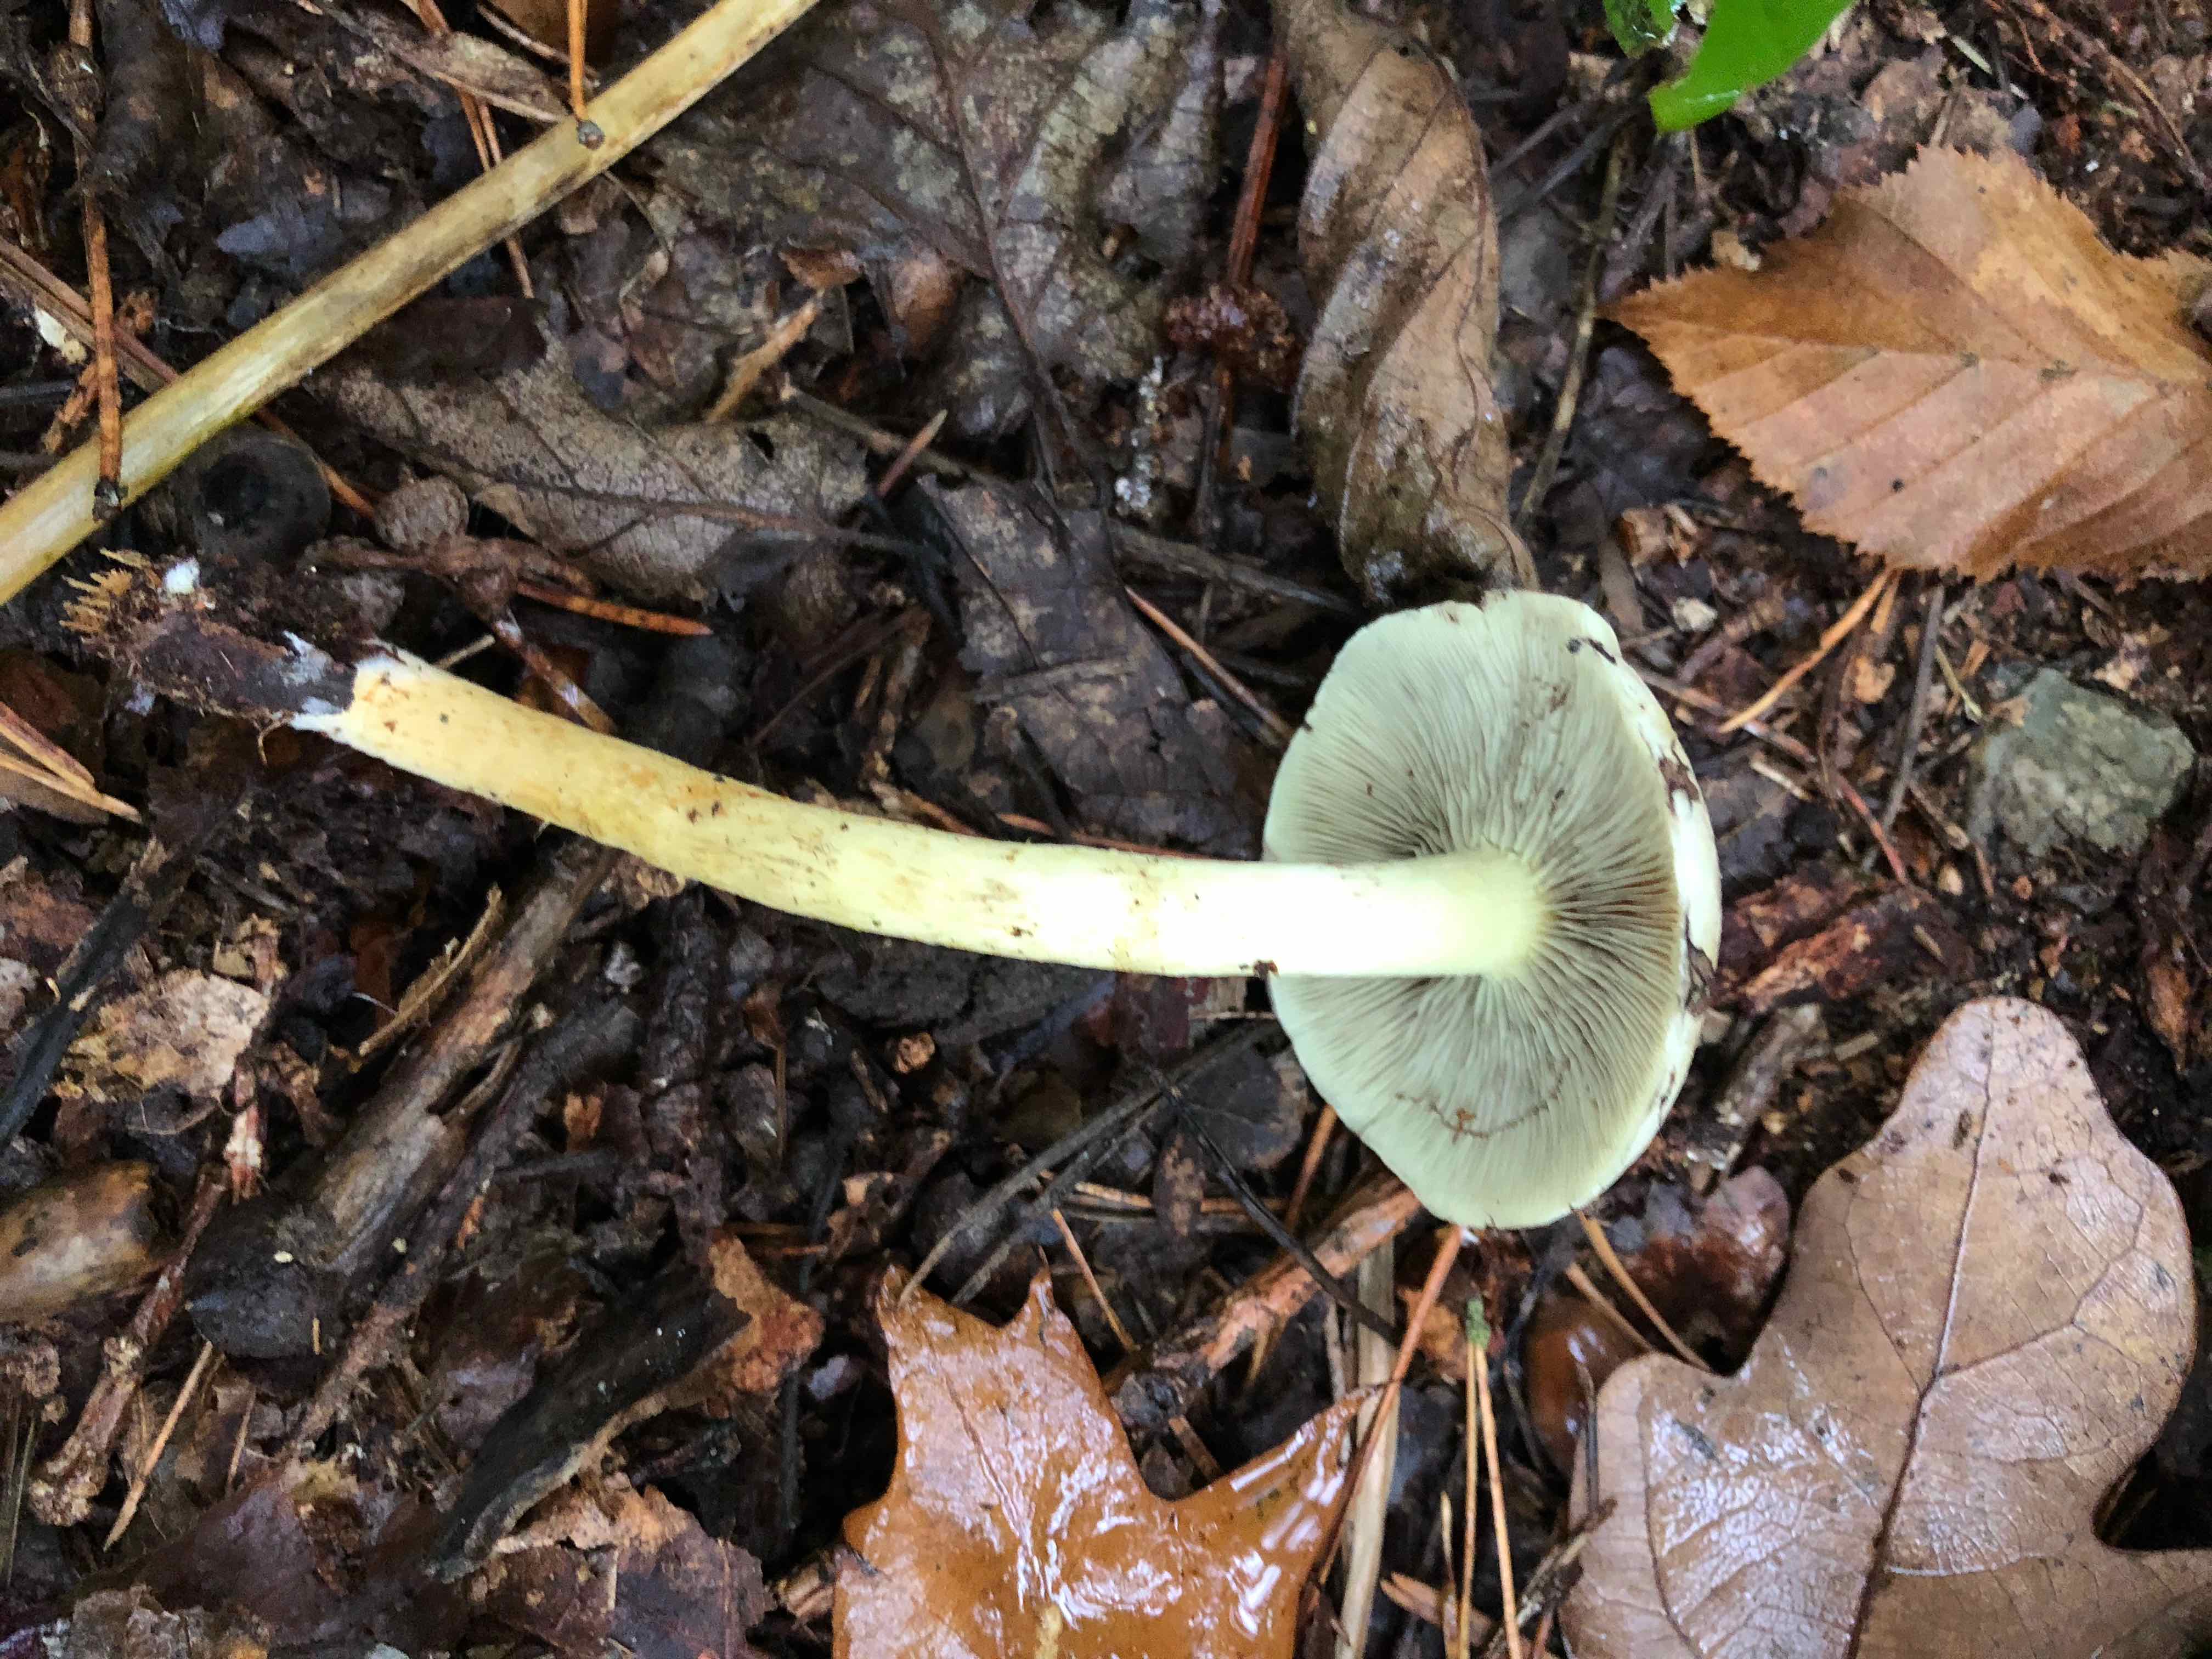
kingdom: Fungi
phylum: Basidiomycota
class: Agaricomycetes
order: Agaricales
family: Strophariaceae
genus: Hypholoma
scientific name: Hypholoma
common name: svovlhat
